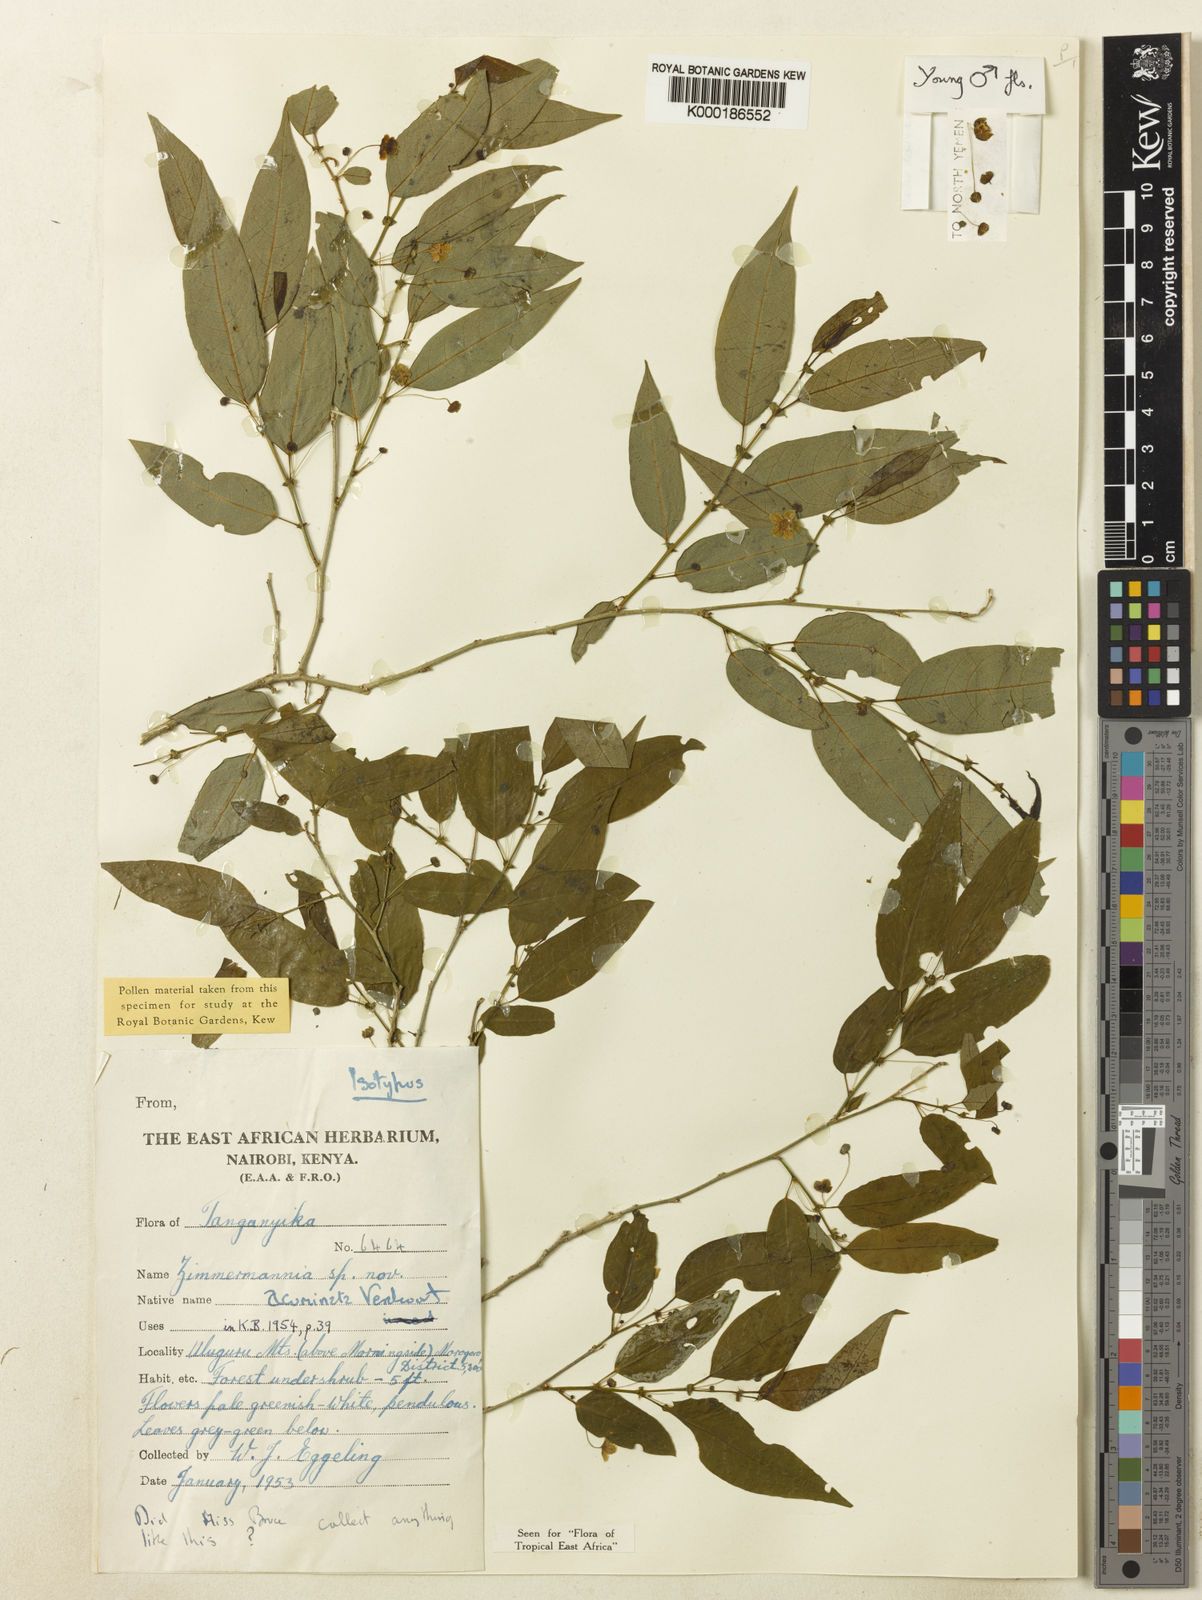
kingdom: Plantae
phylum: Tracheophyta
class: Magnoliopsida
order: Malpighiales
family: Phyllanthaceae
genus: Meineckia
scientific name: Meineckia acuminata
